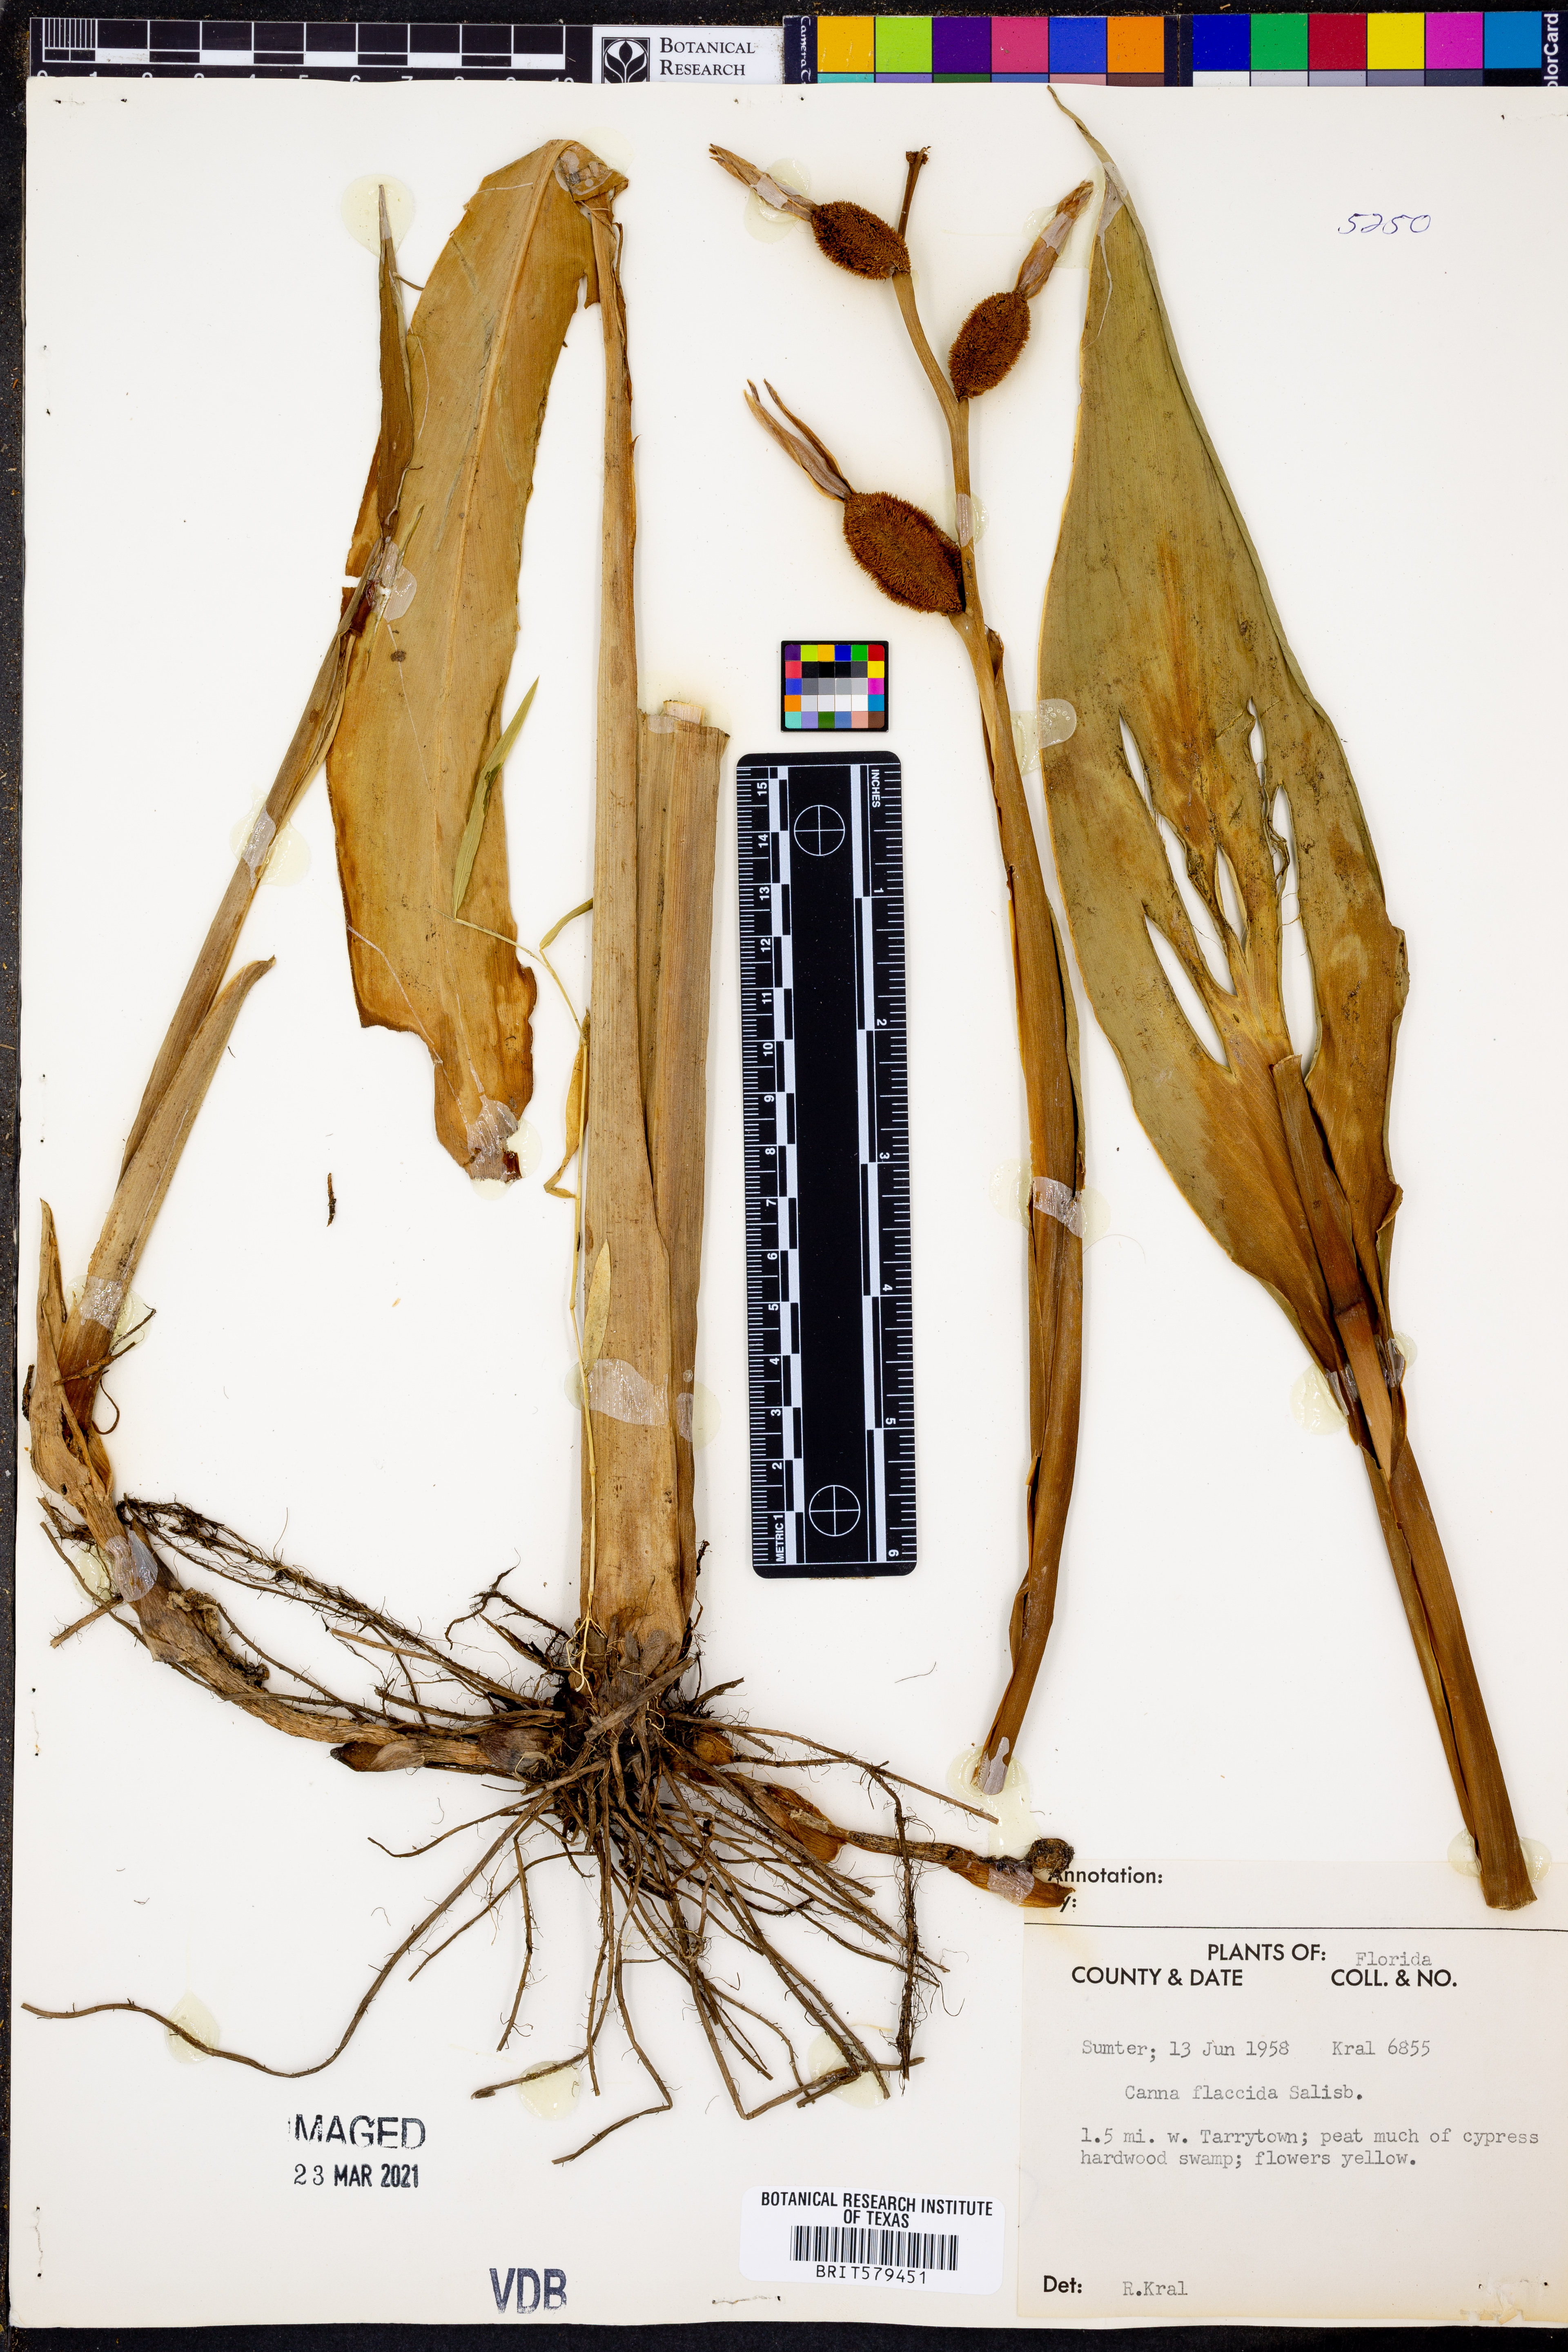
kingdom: Plantae
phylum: Tracheophyta
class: Liliopsida
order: Zingiberales
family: Cannaceae
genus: Canna
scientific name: Canna flaccida
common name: Bandana-of-the-everglades
